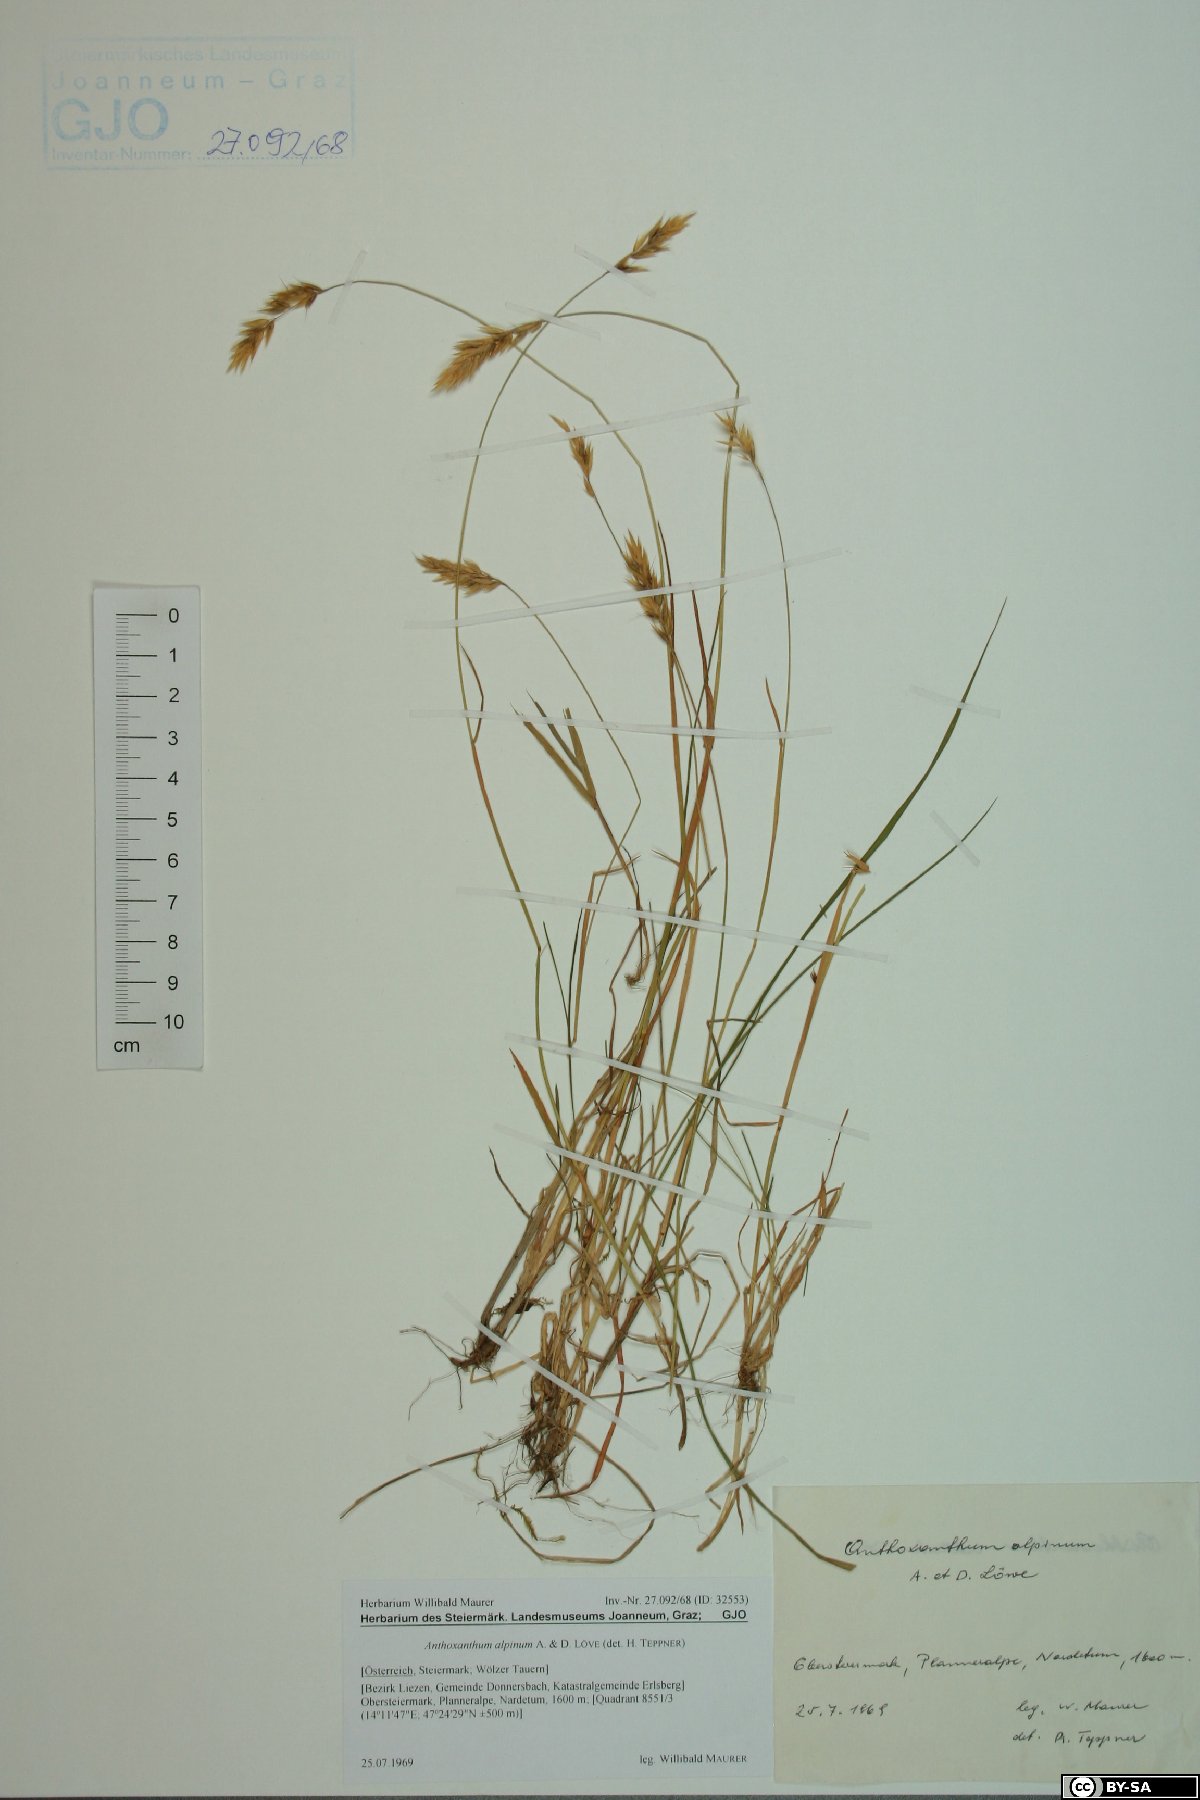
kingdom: Plantae
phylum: Tracheophyta
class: Liliopsida
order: Poales
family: Poaceae
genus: Anthoxanthum
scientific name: Anthoxanthum nipponicum
